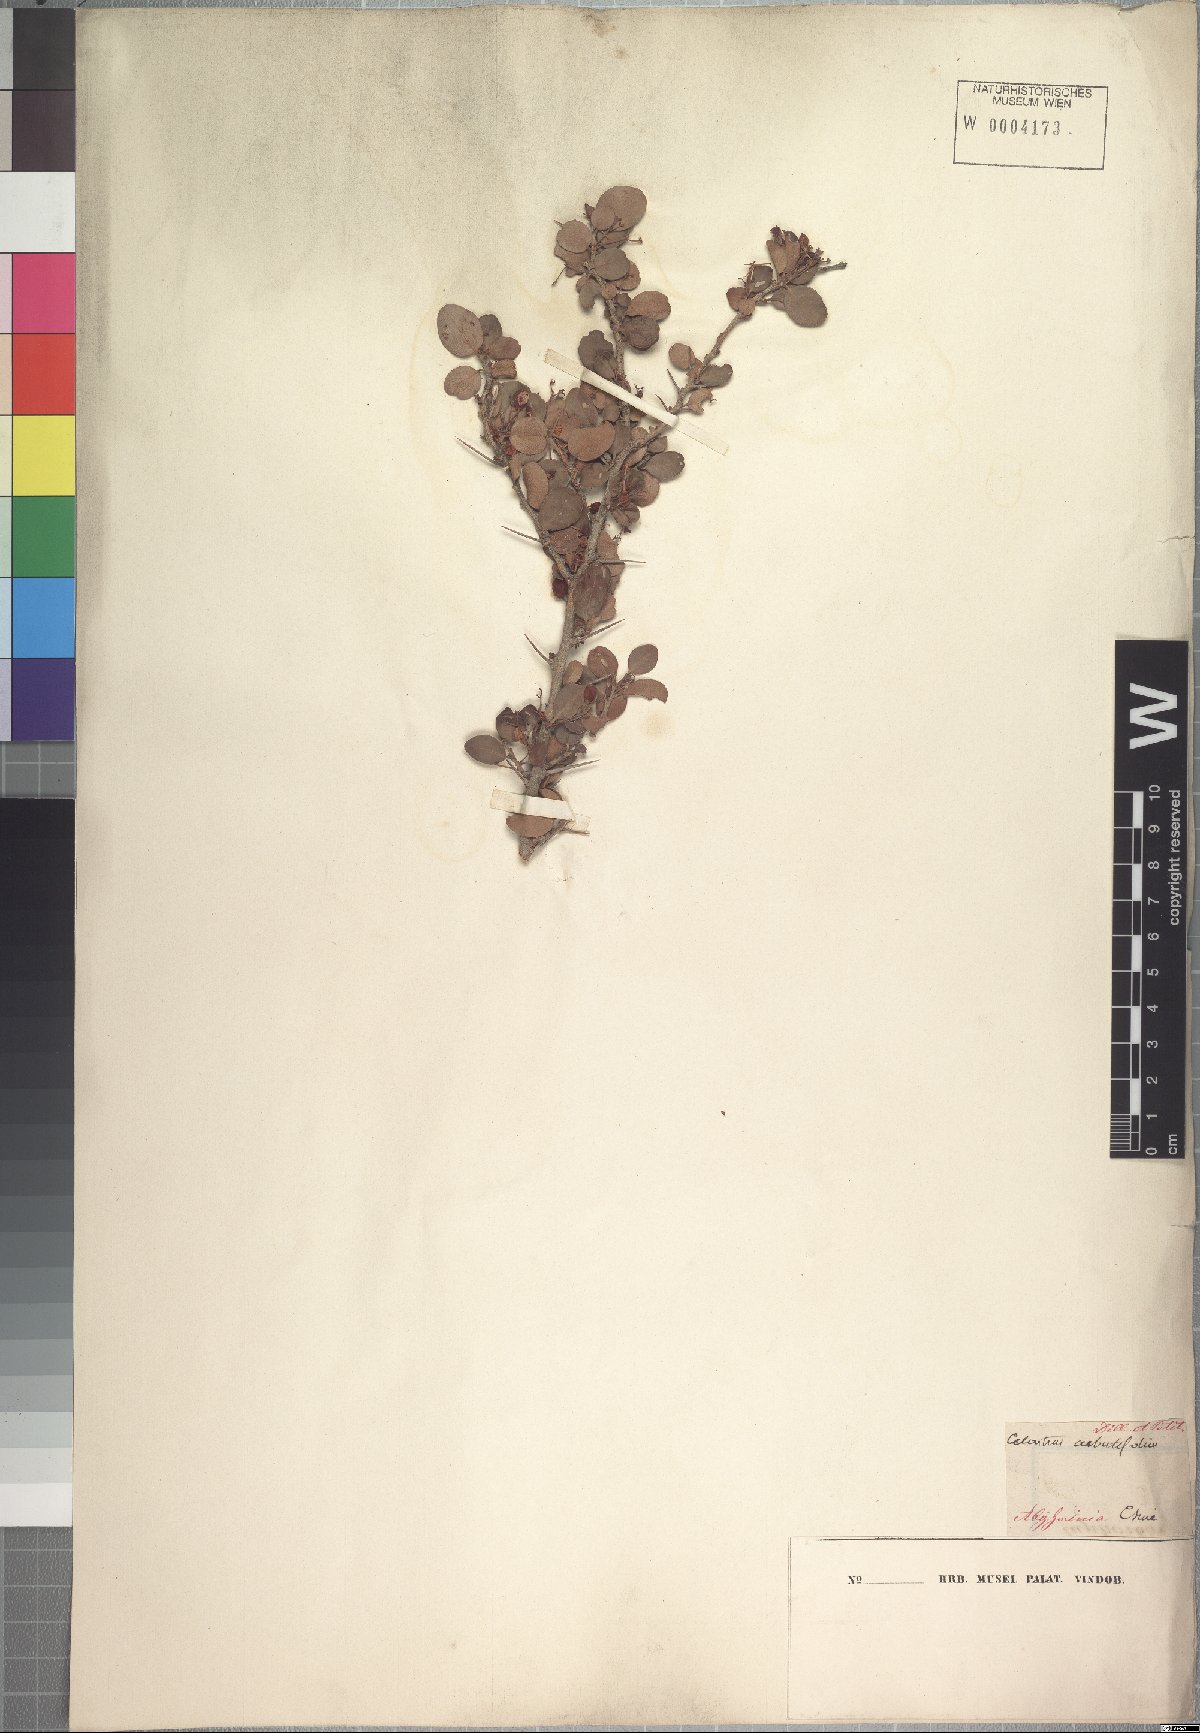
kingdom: Plantae
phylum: Tracheophyta
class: Magnoliopsida
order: Celastrales
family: Celastraceae
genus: Gymnosporia
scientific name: Gymnosporia arbutifolia
